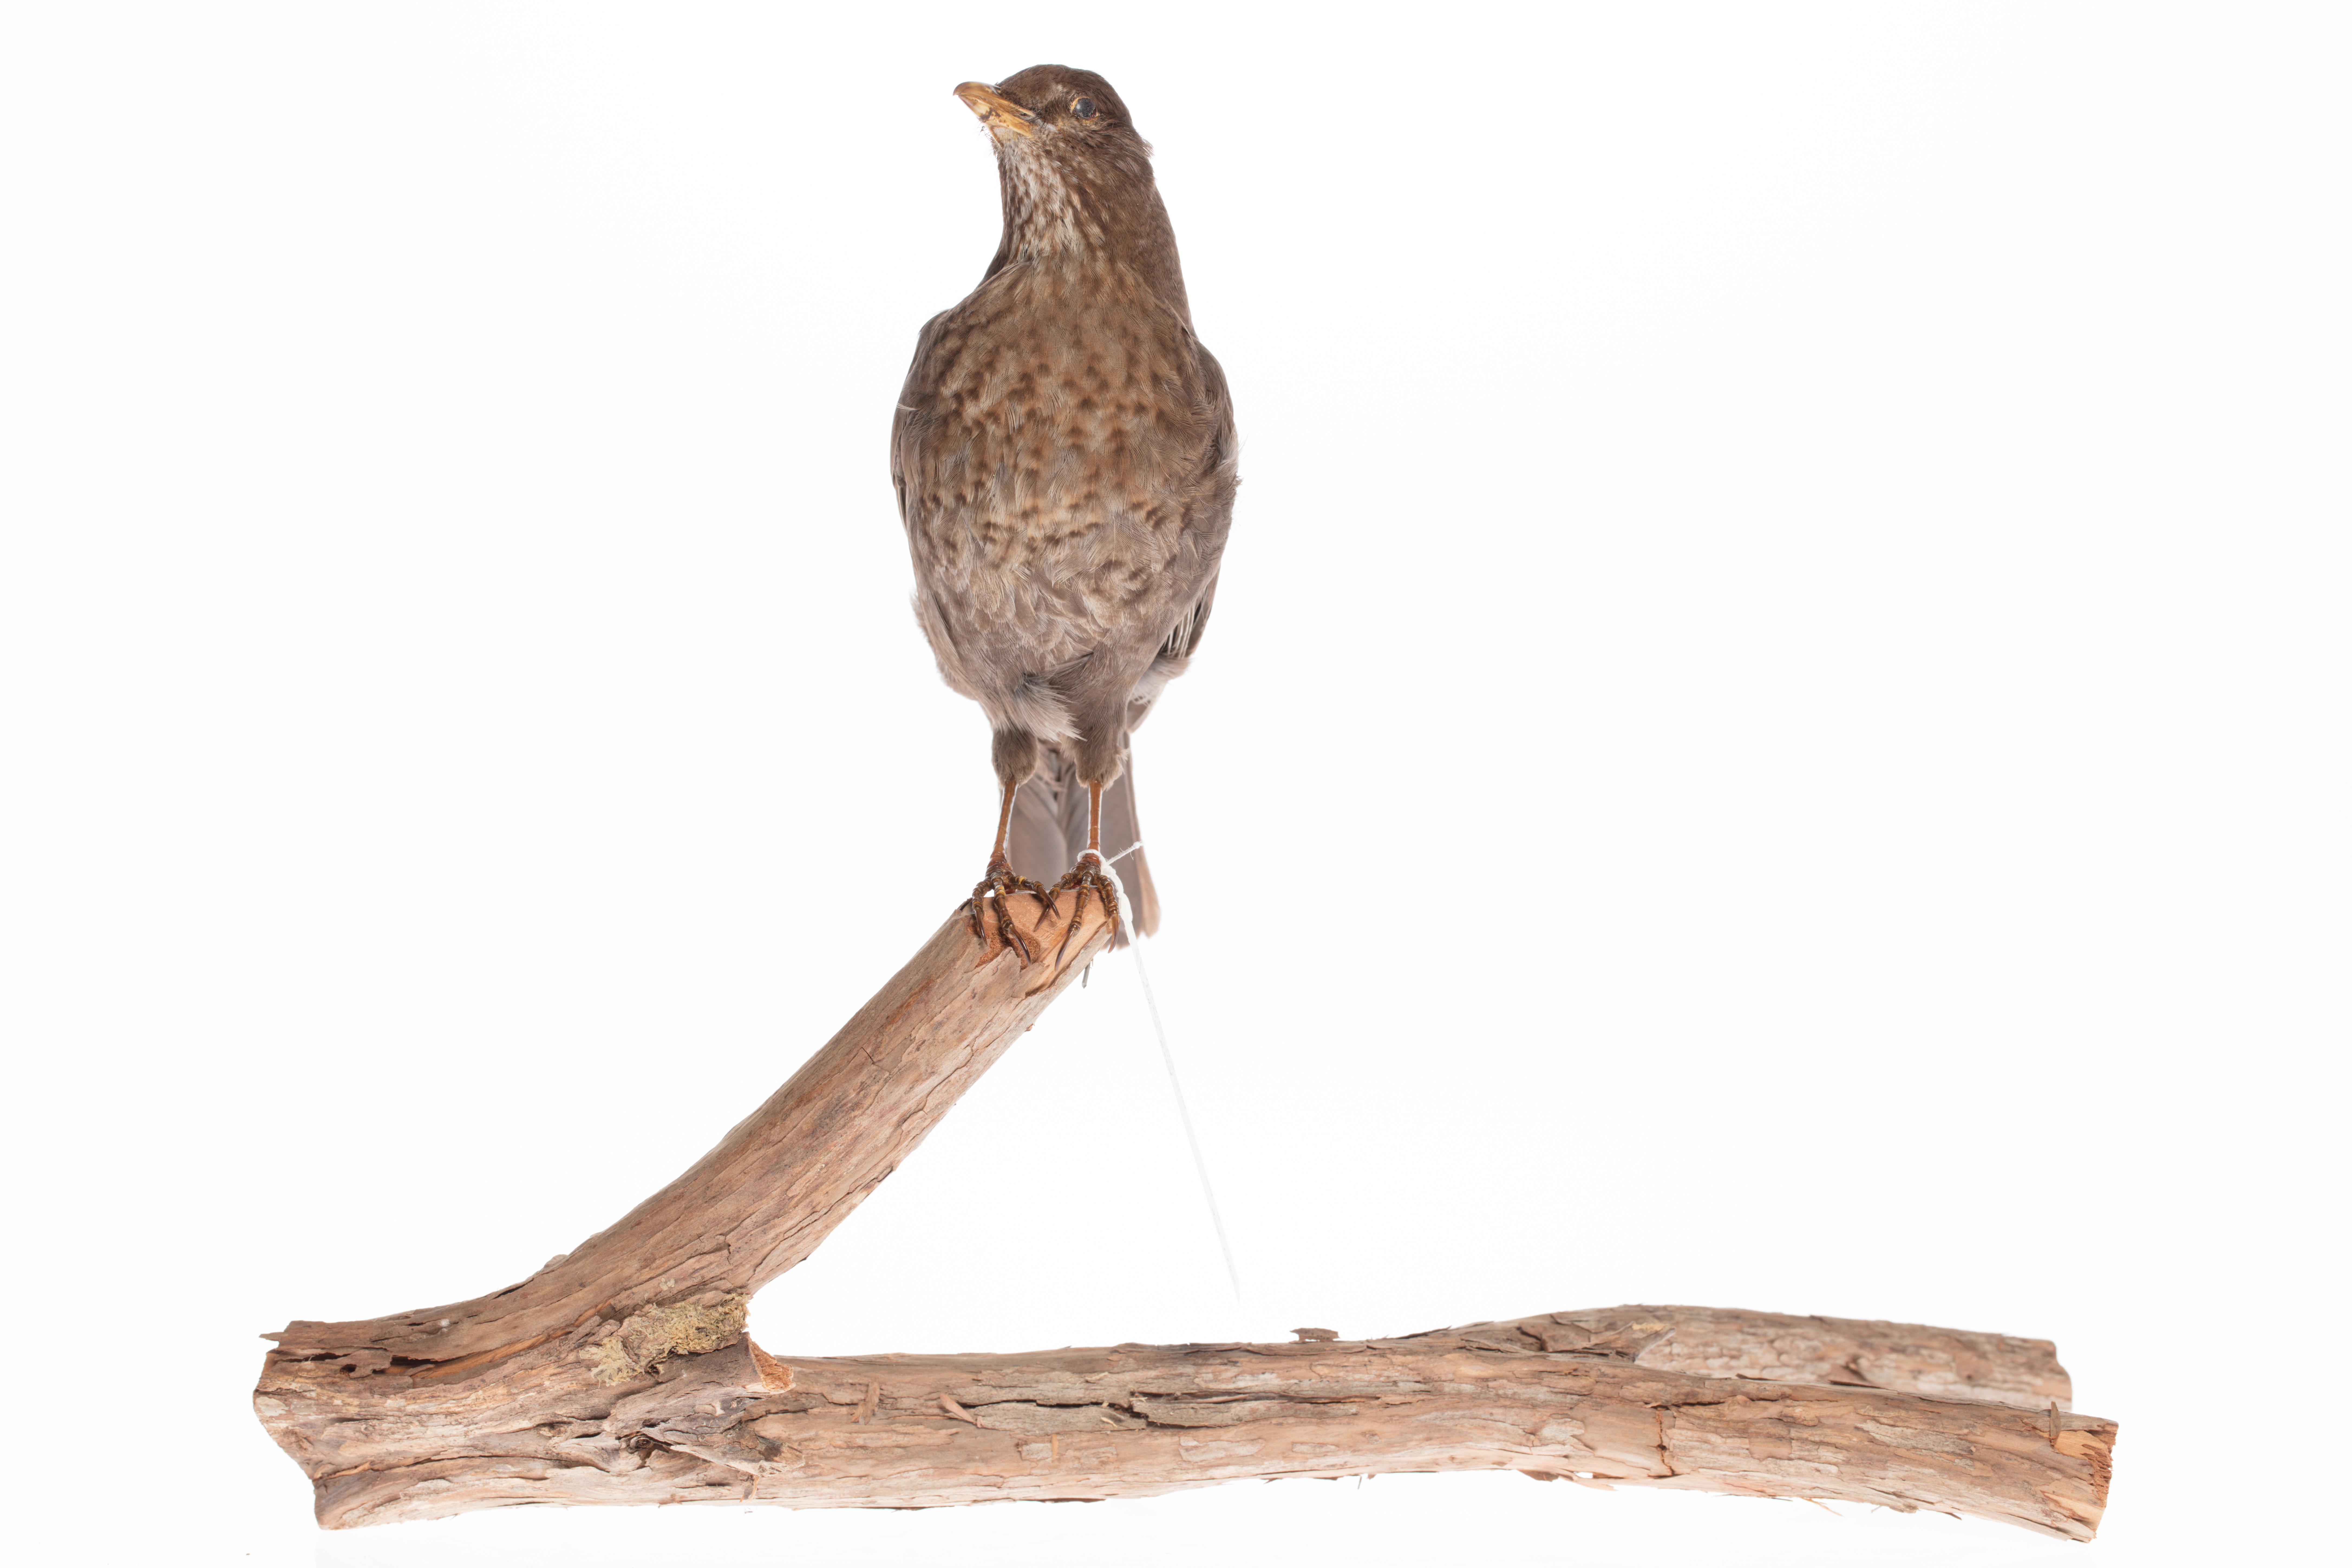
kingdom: Animalia
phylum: Chordata
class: Aves
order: Passeriformes
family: Turdidae
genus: Turdus
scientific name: Turdus merula
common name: Common blackbird
